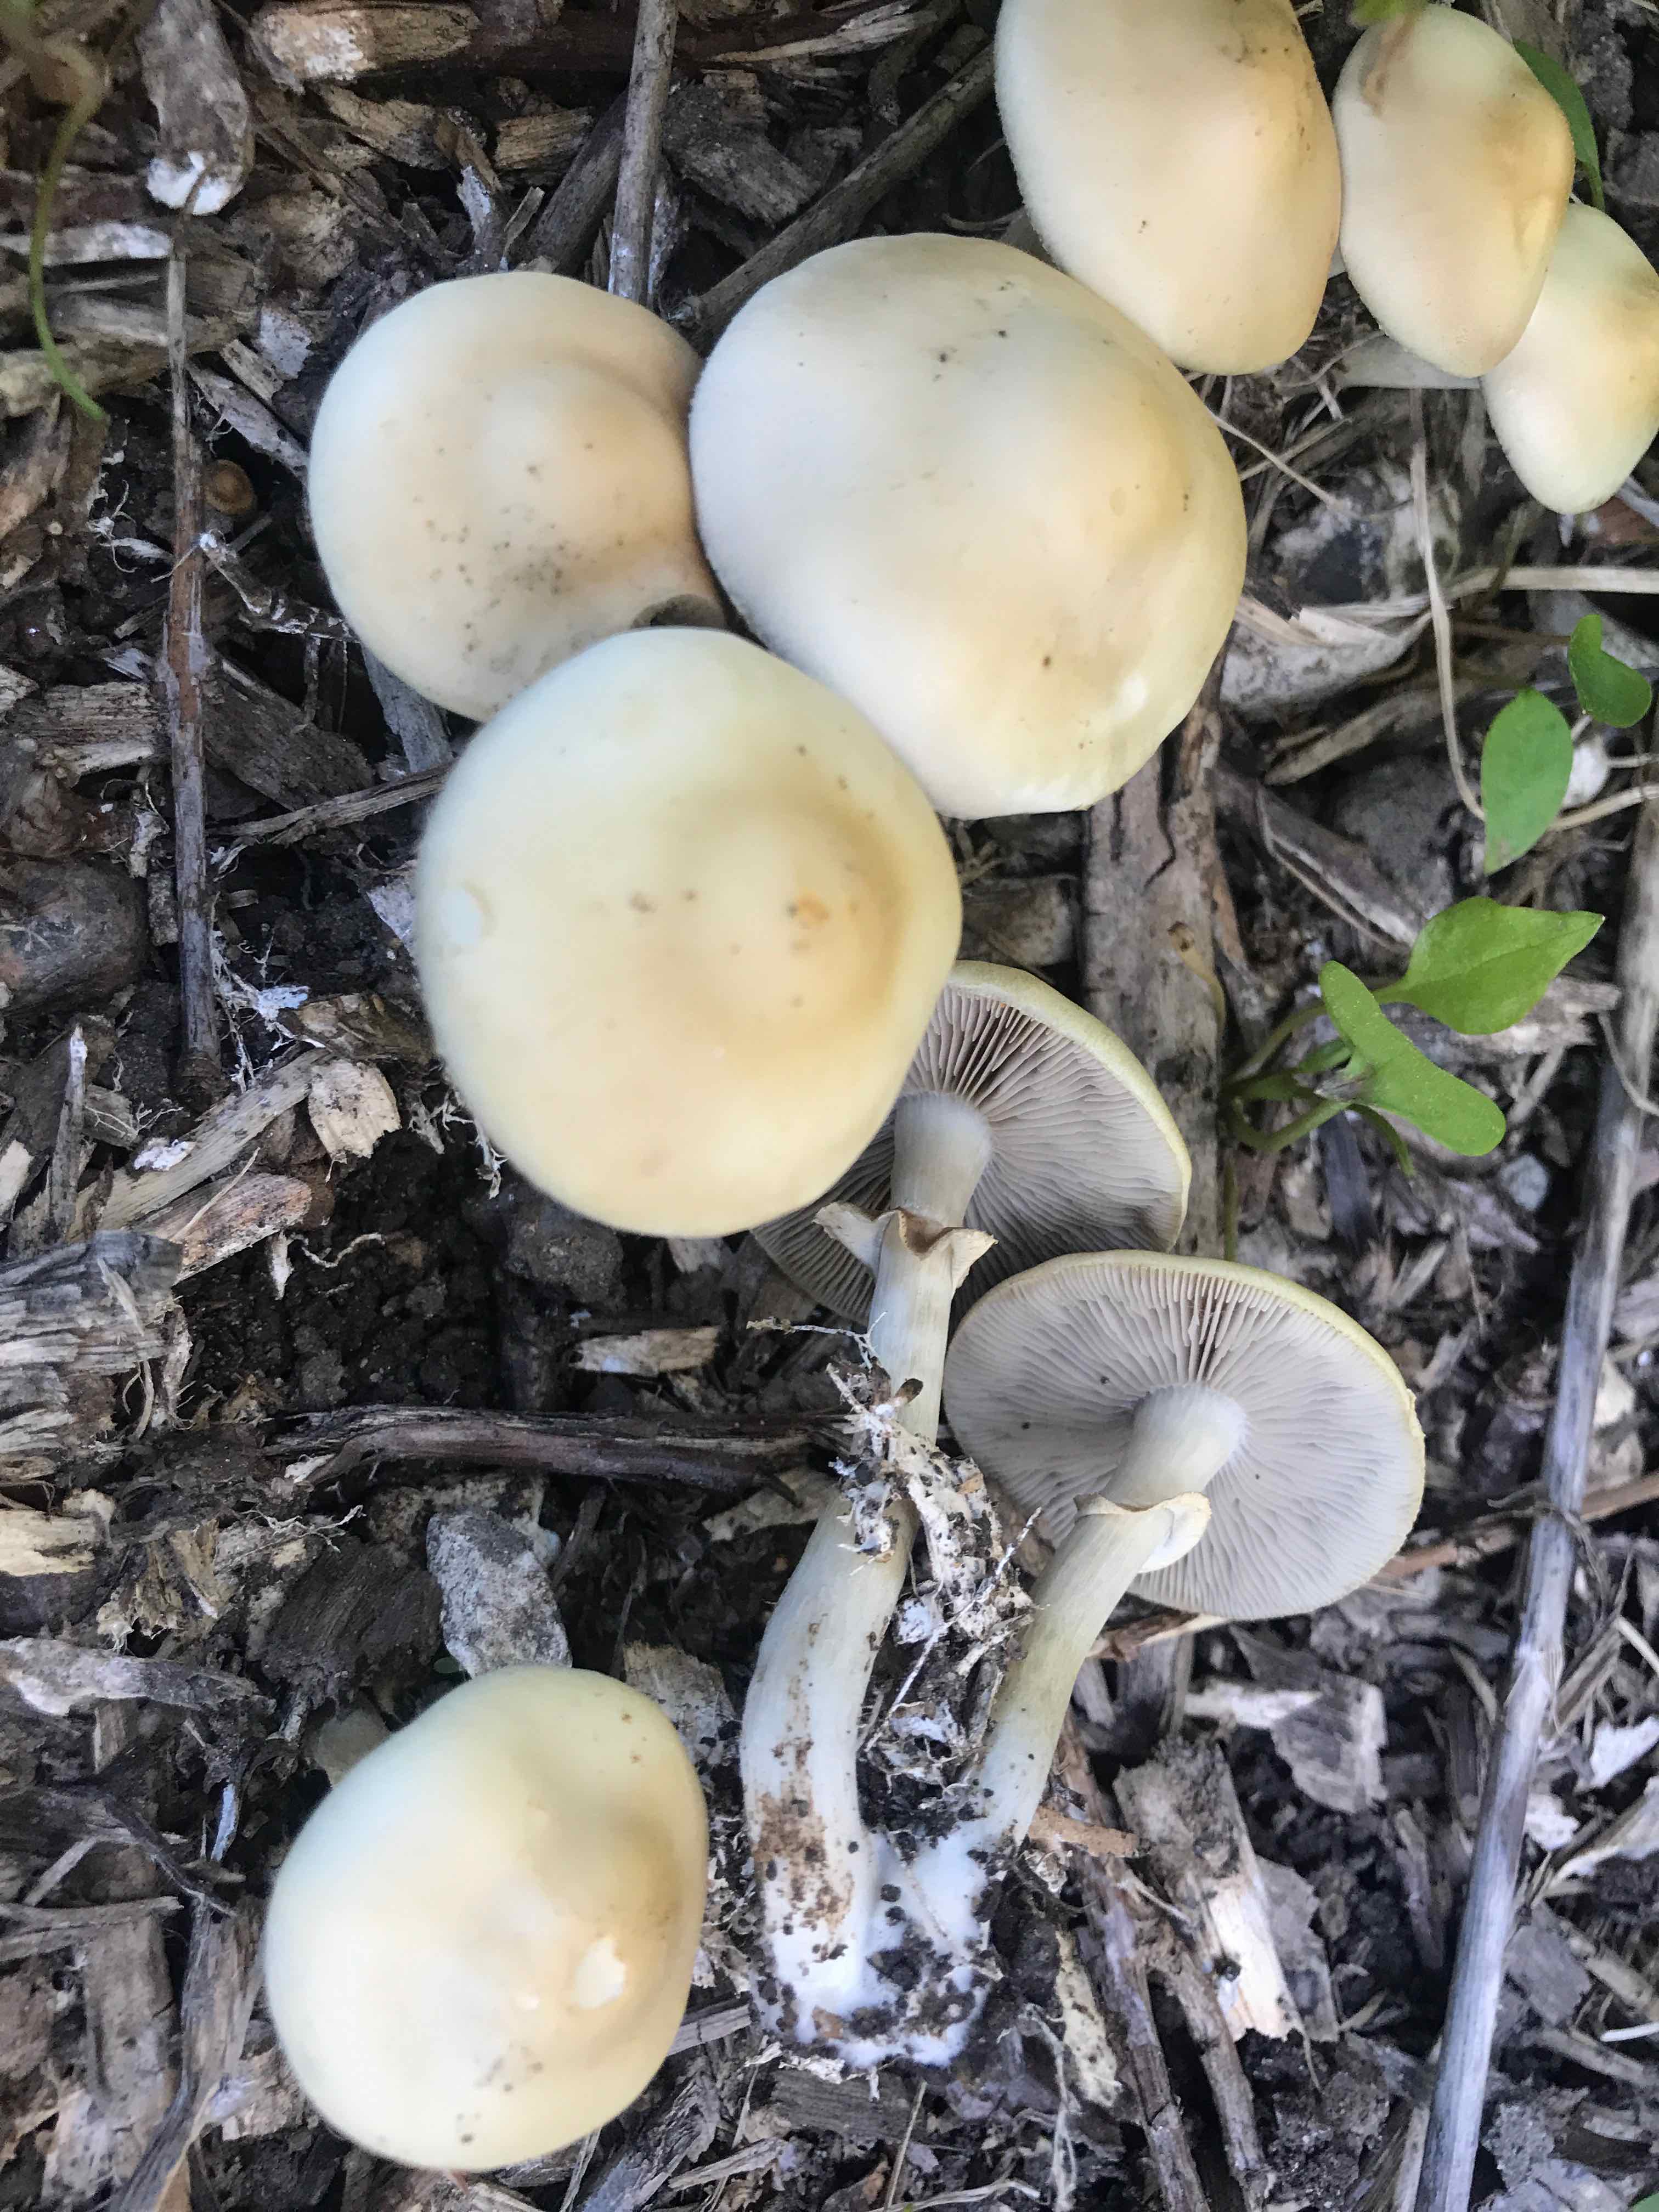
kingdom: Fungi
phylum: Basidiomycota
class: Agaricomycetes
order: Agaricales
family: Strophariaceae
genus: Agrocybe
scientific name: Agrocybe praecox
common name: tidlig agerhat
